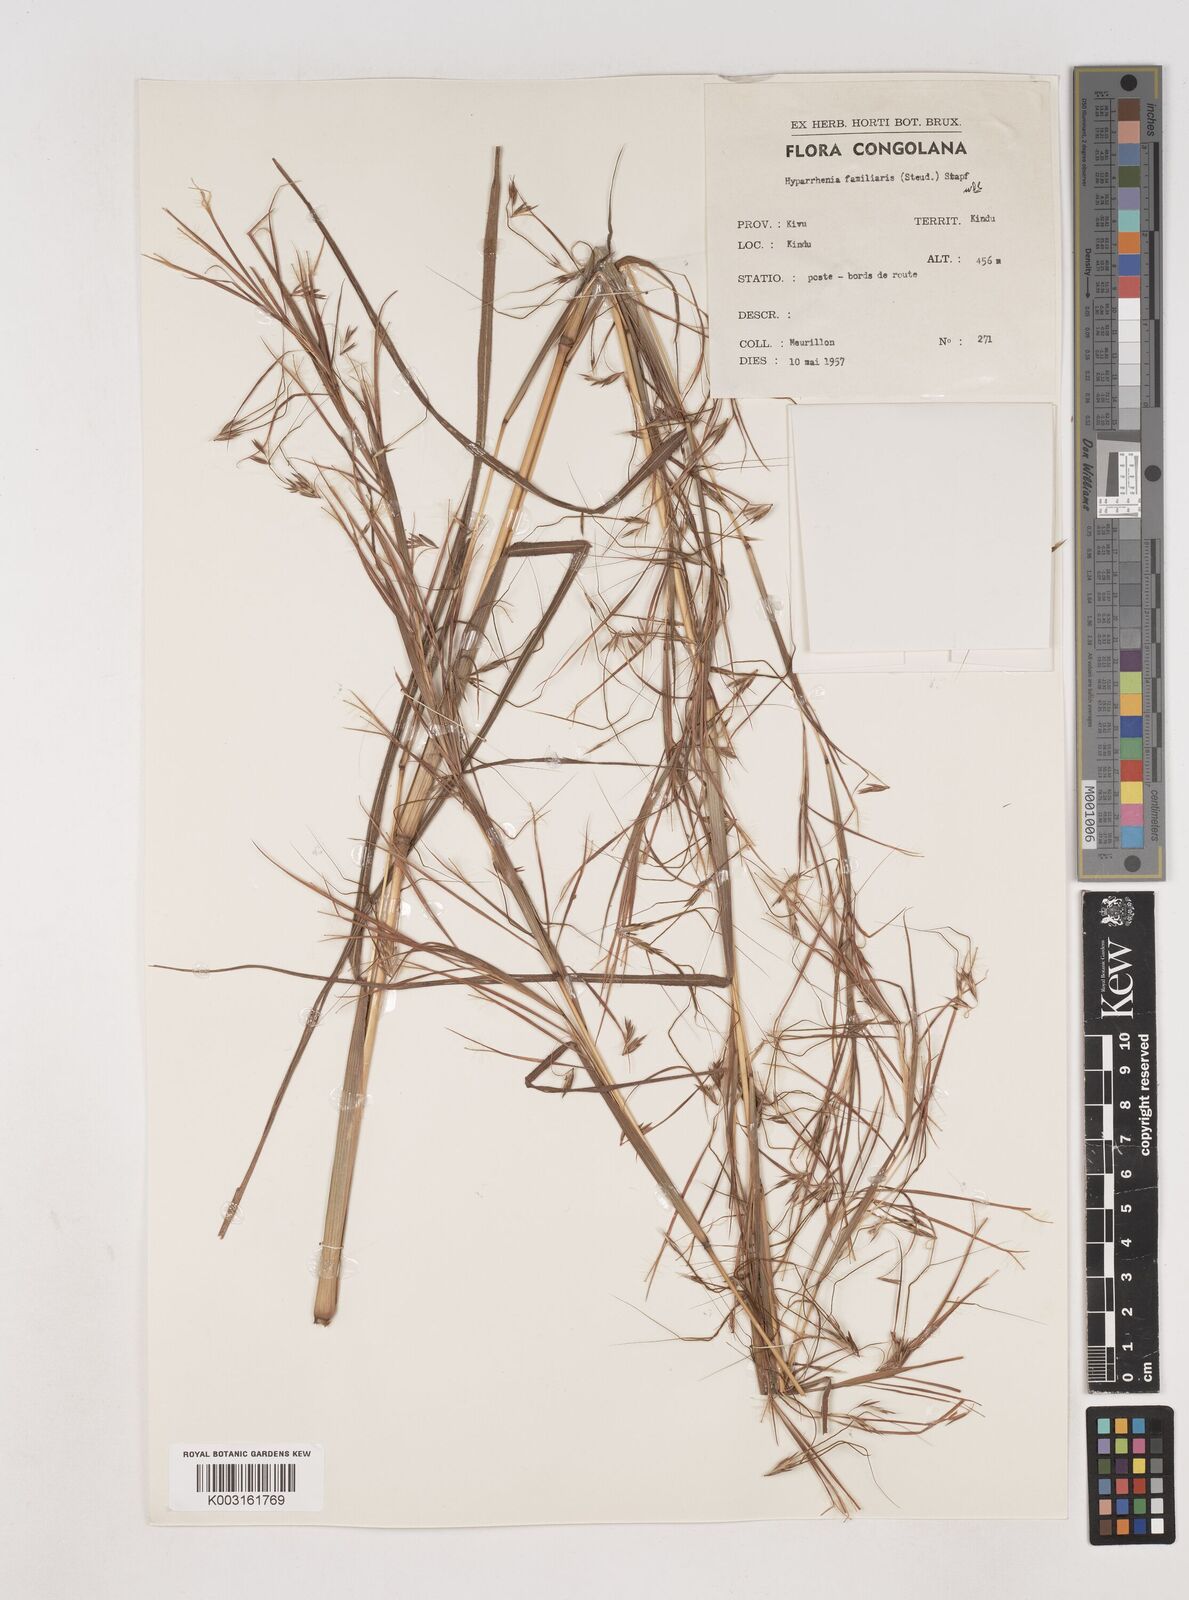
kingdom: Plantae
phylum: Tracheophyta
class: Liliopsida
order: Poales
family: Poaceae
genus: Hyparrhenia
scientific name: Hyparrhenia familiaris
